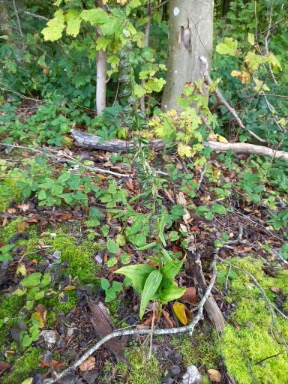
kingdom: Plantae
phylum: Tracheophyta
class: Liliopsida
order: Asparagales
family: Orchidaceae
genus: Epipactis
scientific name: Epipactis helleborine
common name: Skov-hullæbe
